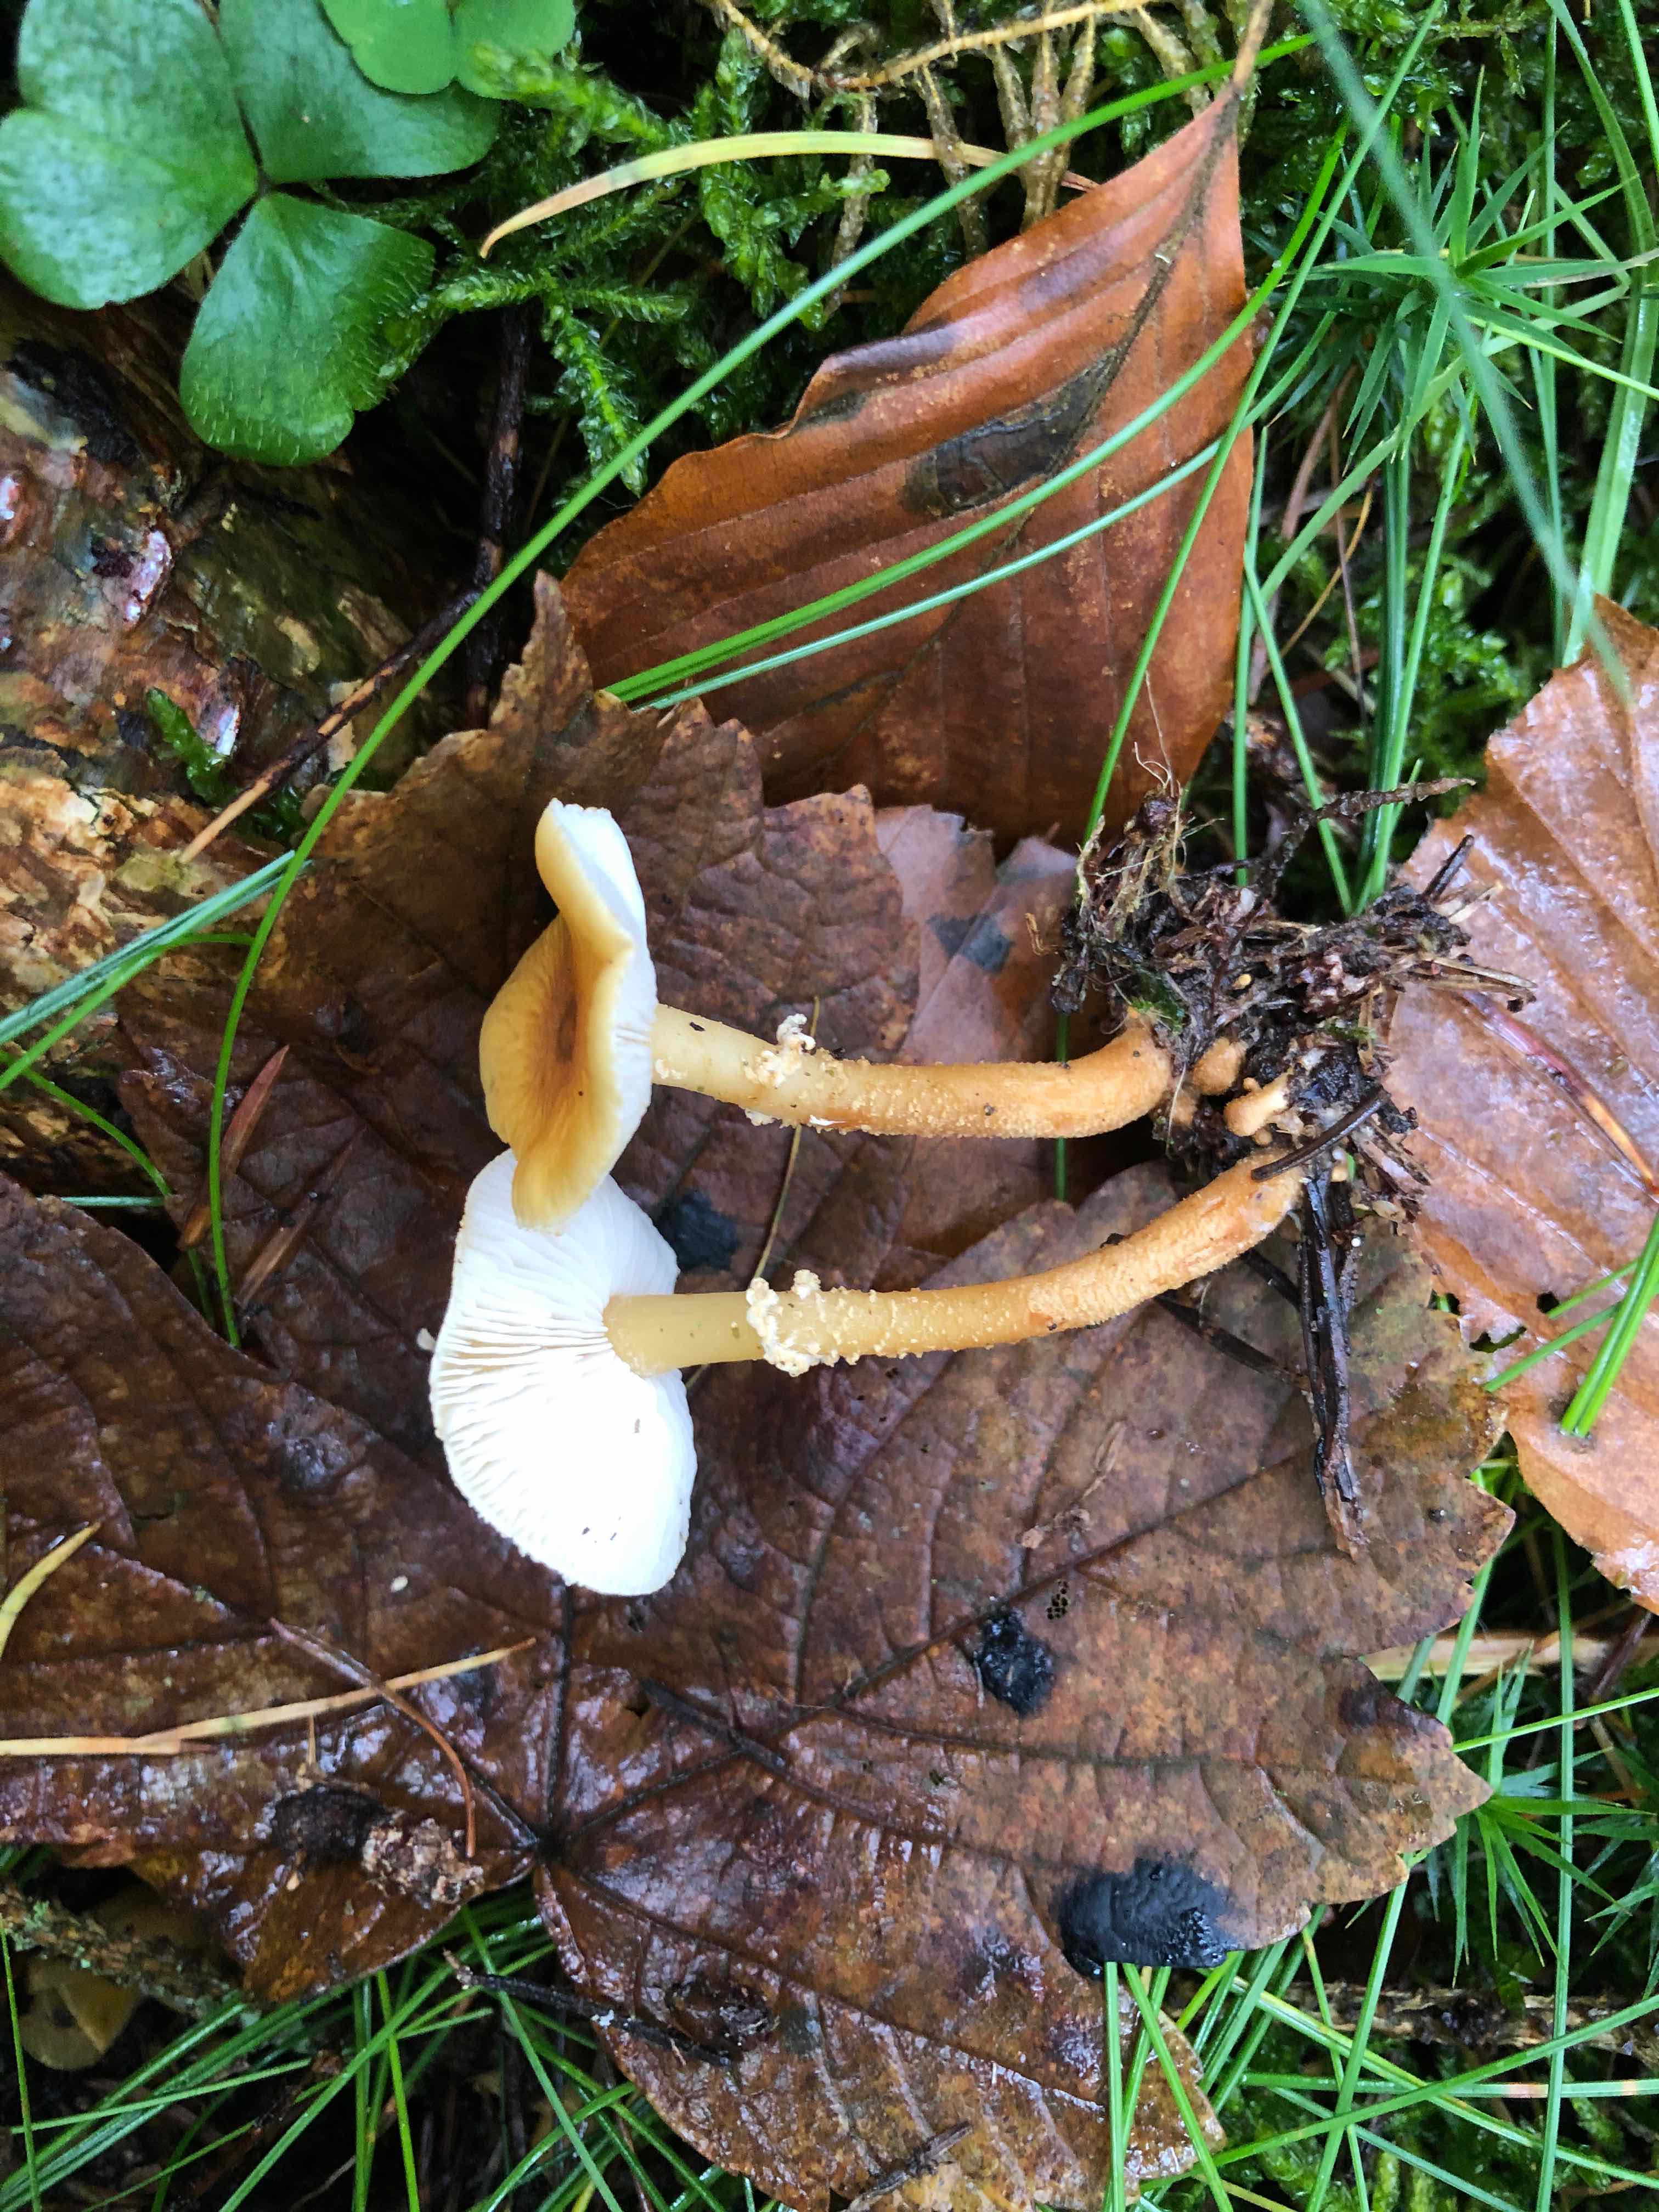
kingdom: Fungi
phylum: Basidiomycota
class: Agaricomycetes
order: Agaricales
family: Tricholomataceae
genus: Cystoderma
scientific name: Cystoderma amianthinum
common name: okkergul grynhat
